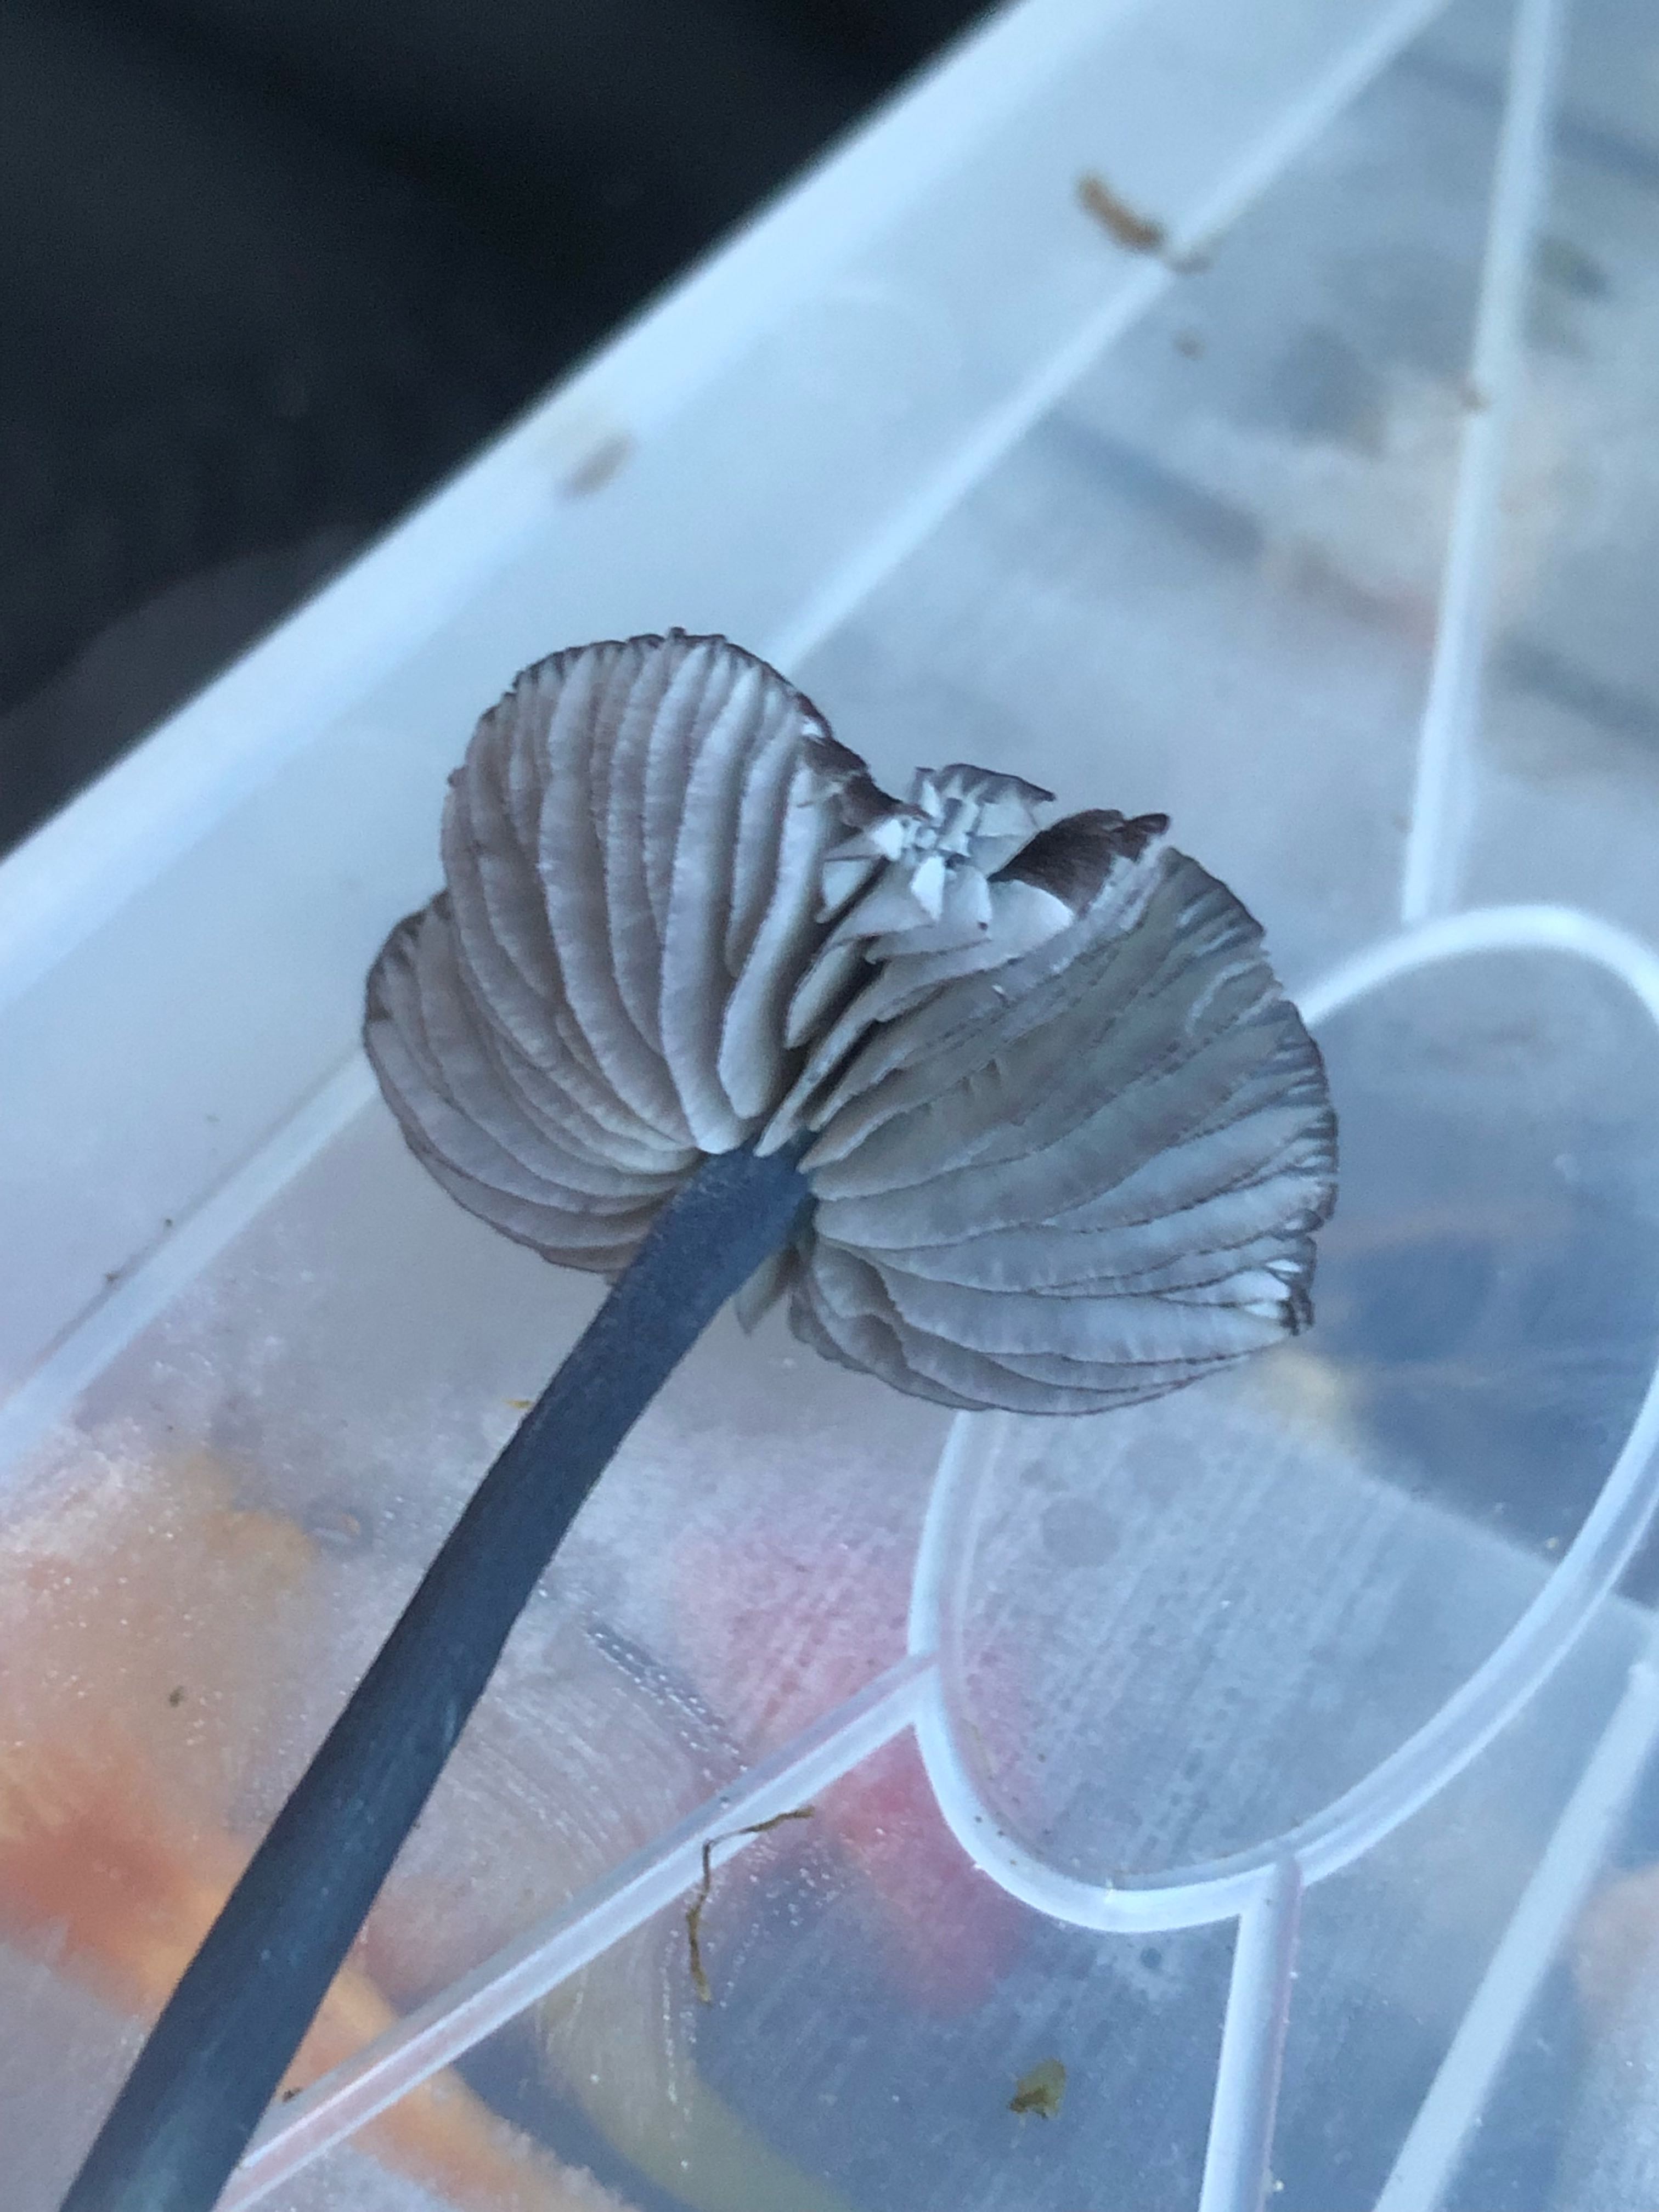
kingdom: Fungi
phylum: Basidiomycota
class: Agaricomycetes
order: Agaricales
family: Entolomataceae
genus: Entoloma
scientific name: Entoloma chalybeum
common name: blåbladet rødblad
